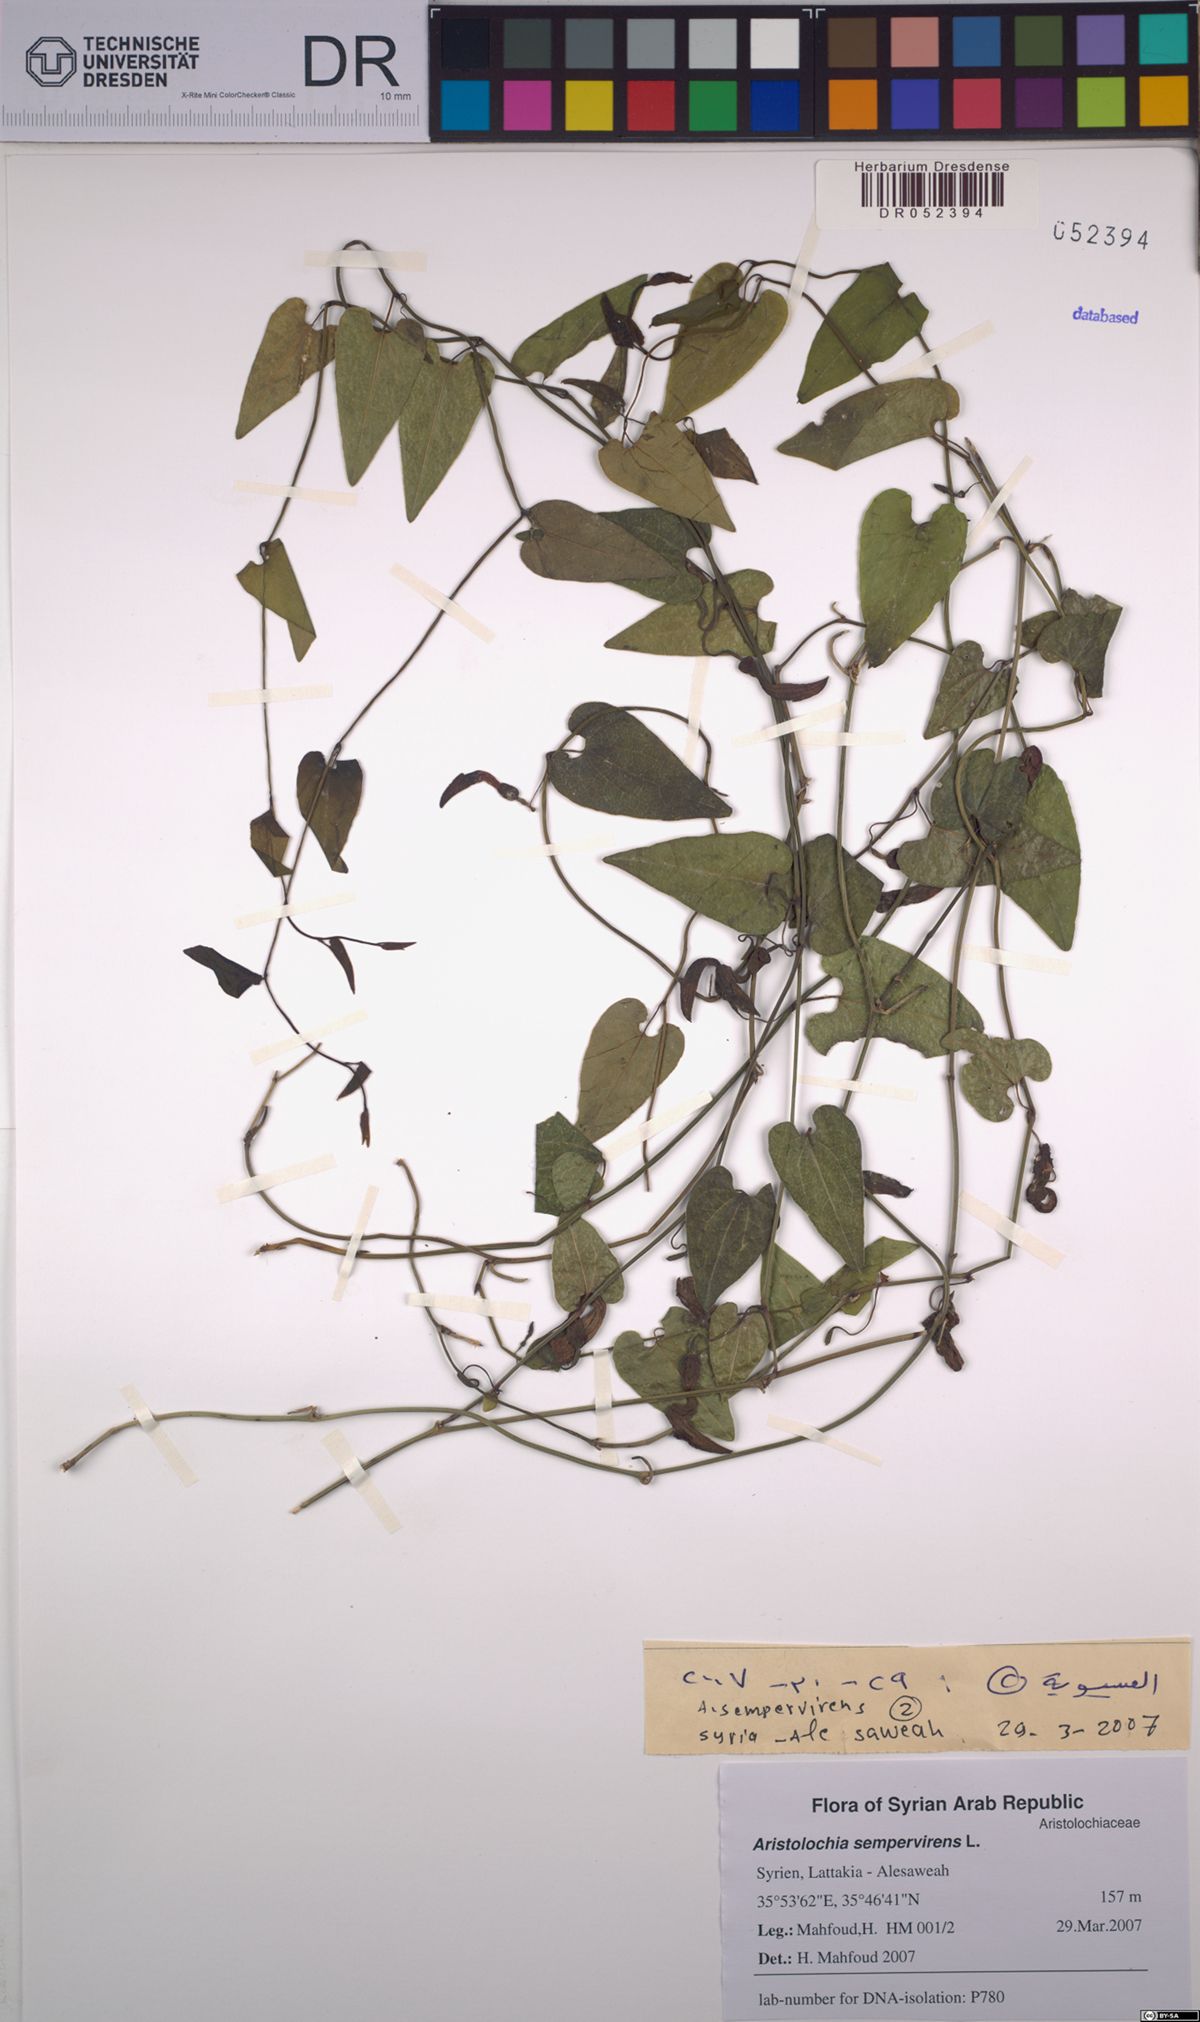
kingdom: Plantae
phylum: Tracheophyta
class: Magnoliopsida
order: Piperales
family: Aristolochiaceae
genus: Aristolochia
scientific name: Aristolochia sempervirens
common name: Long birthwort
